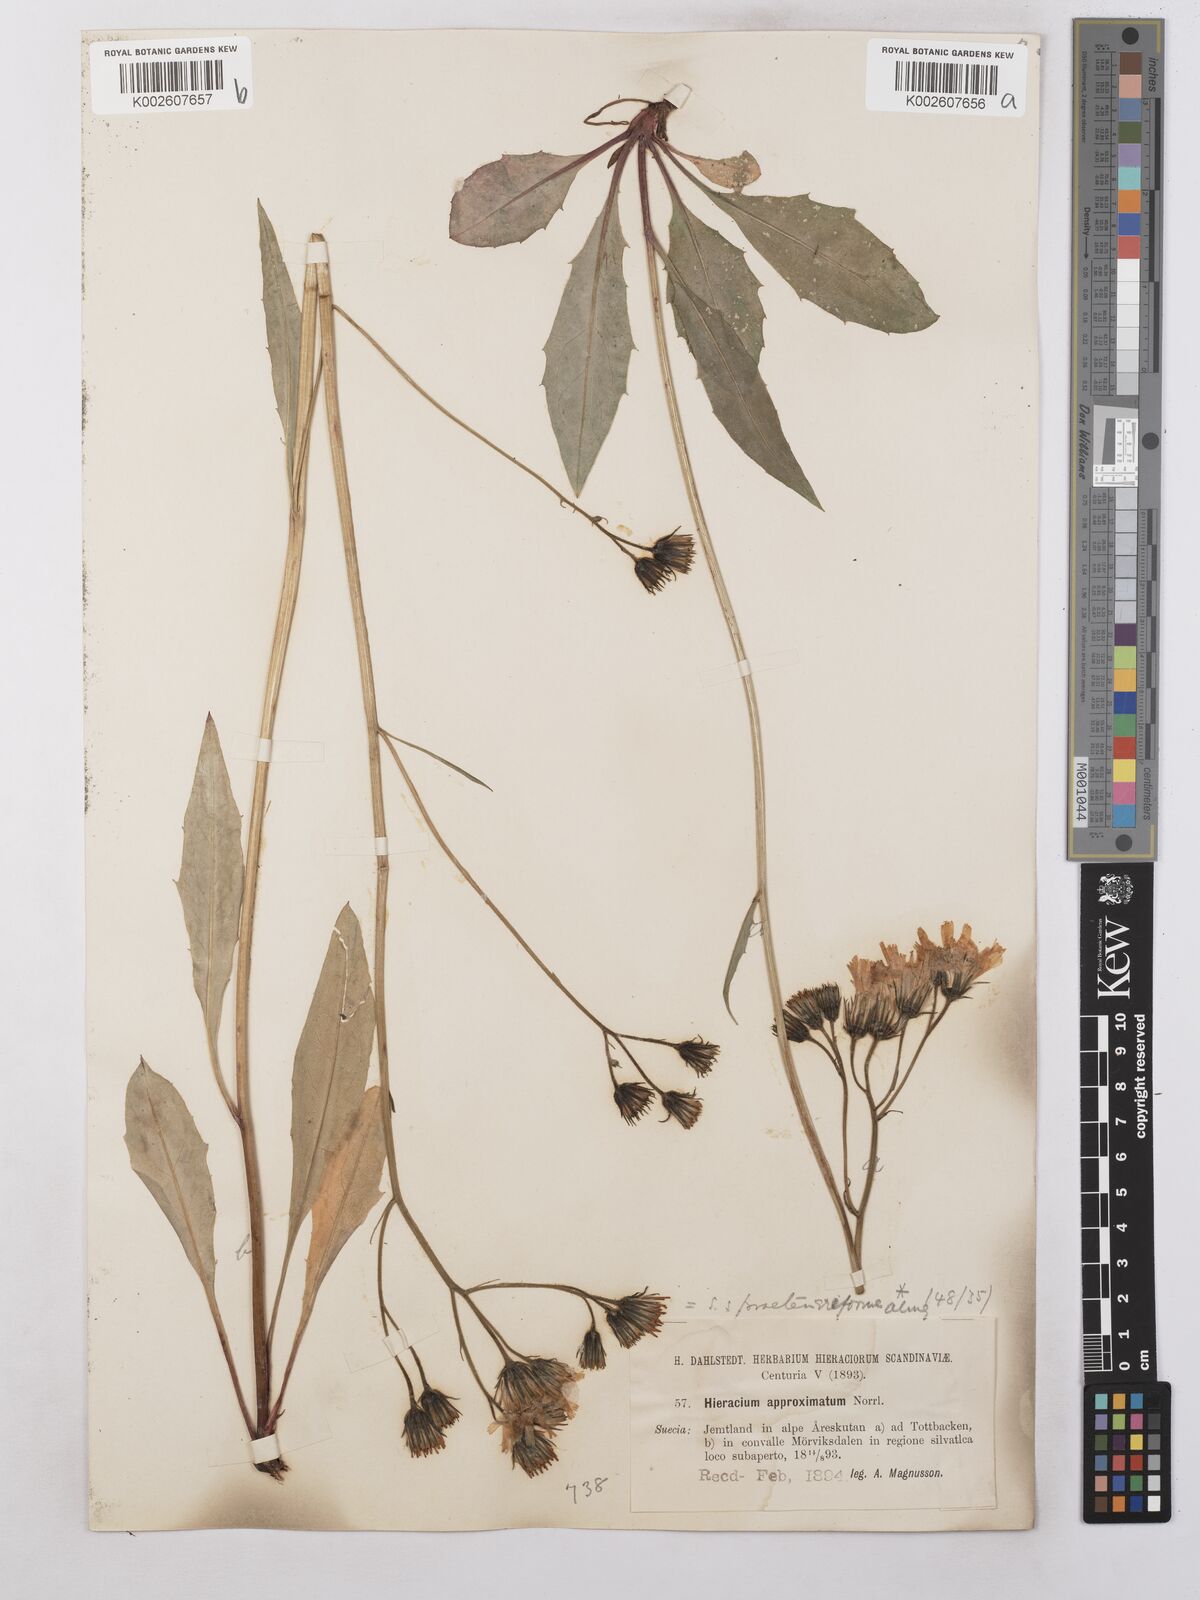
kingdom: Plantae
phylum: Tracheophyta
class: Magnoliopsida
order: Asterales
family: Asteraceae
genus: Hieracium
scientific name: Hieracium subramosum
